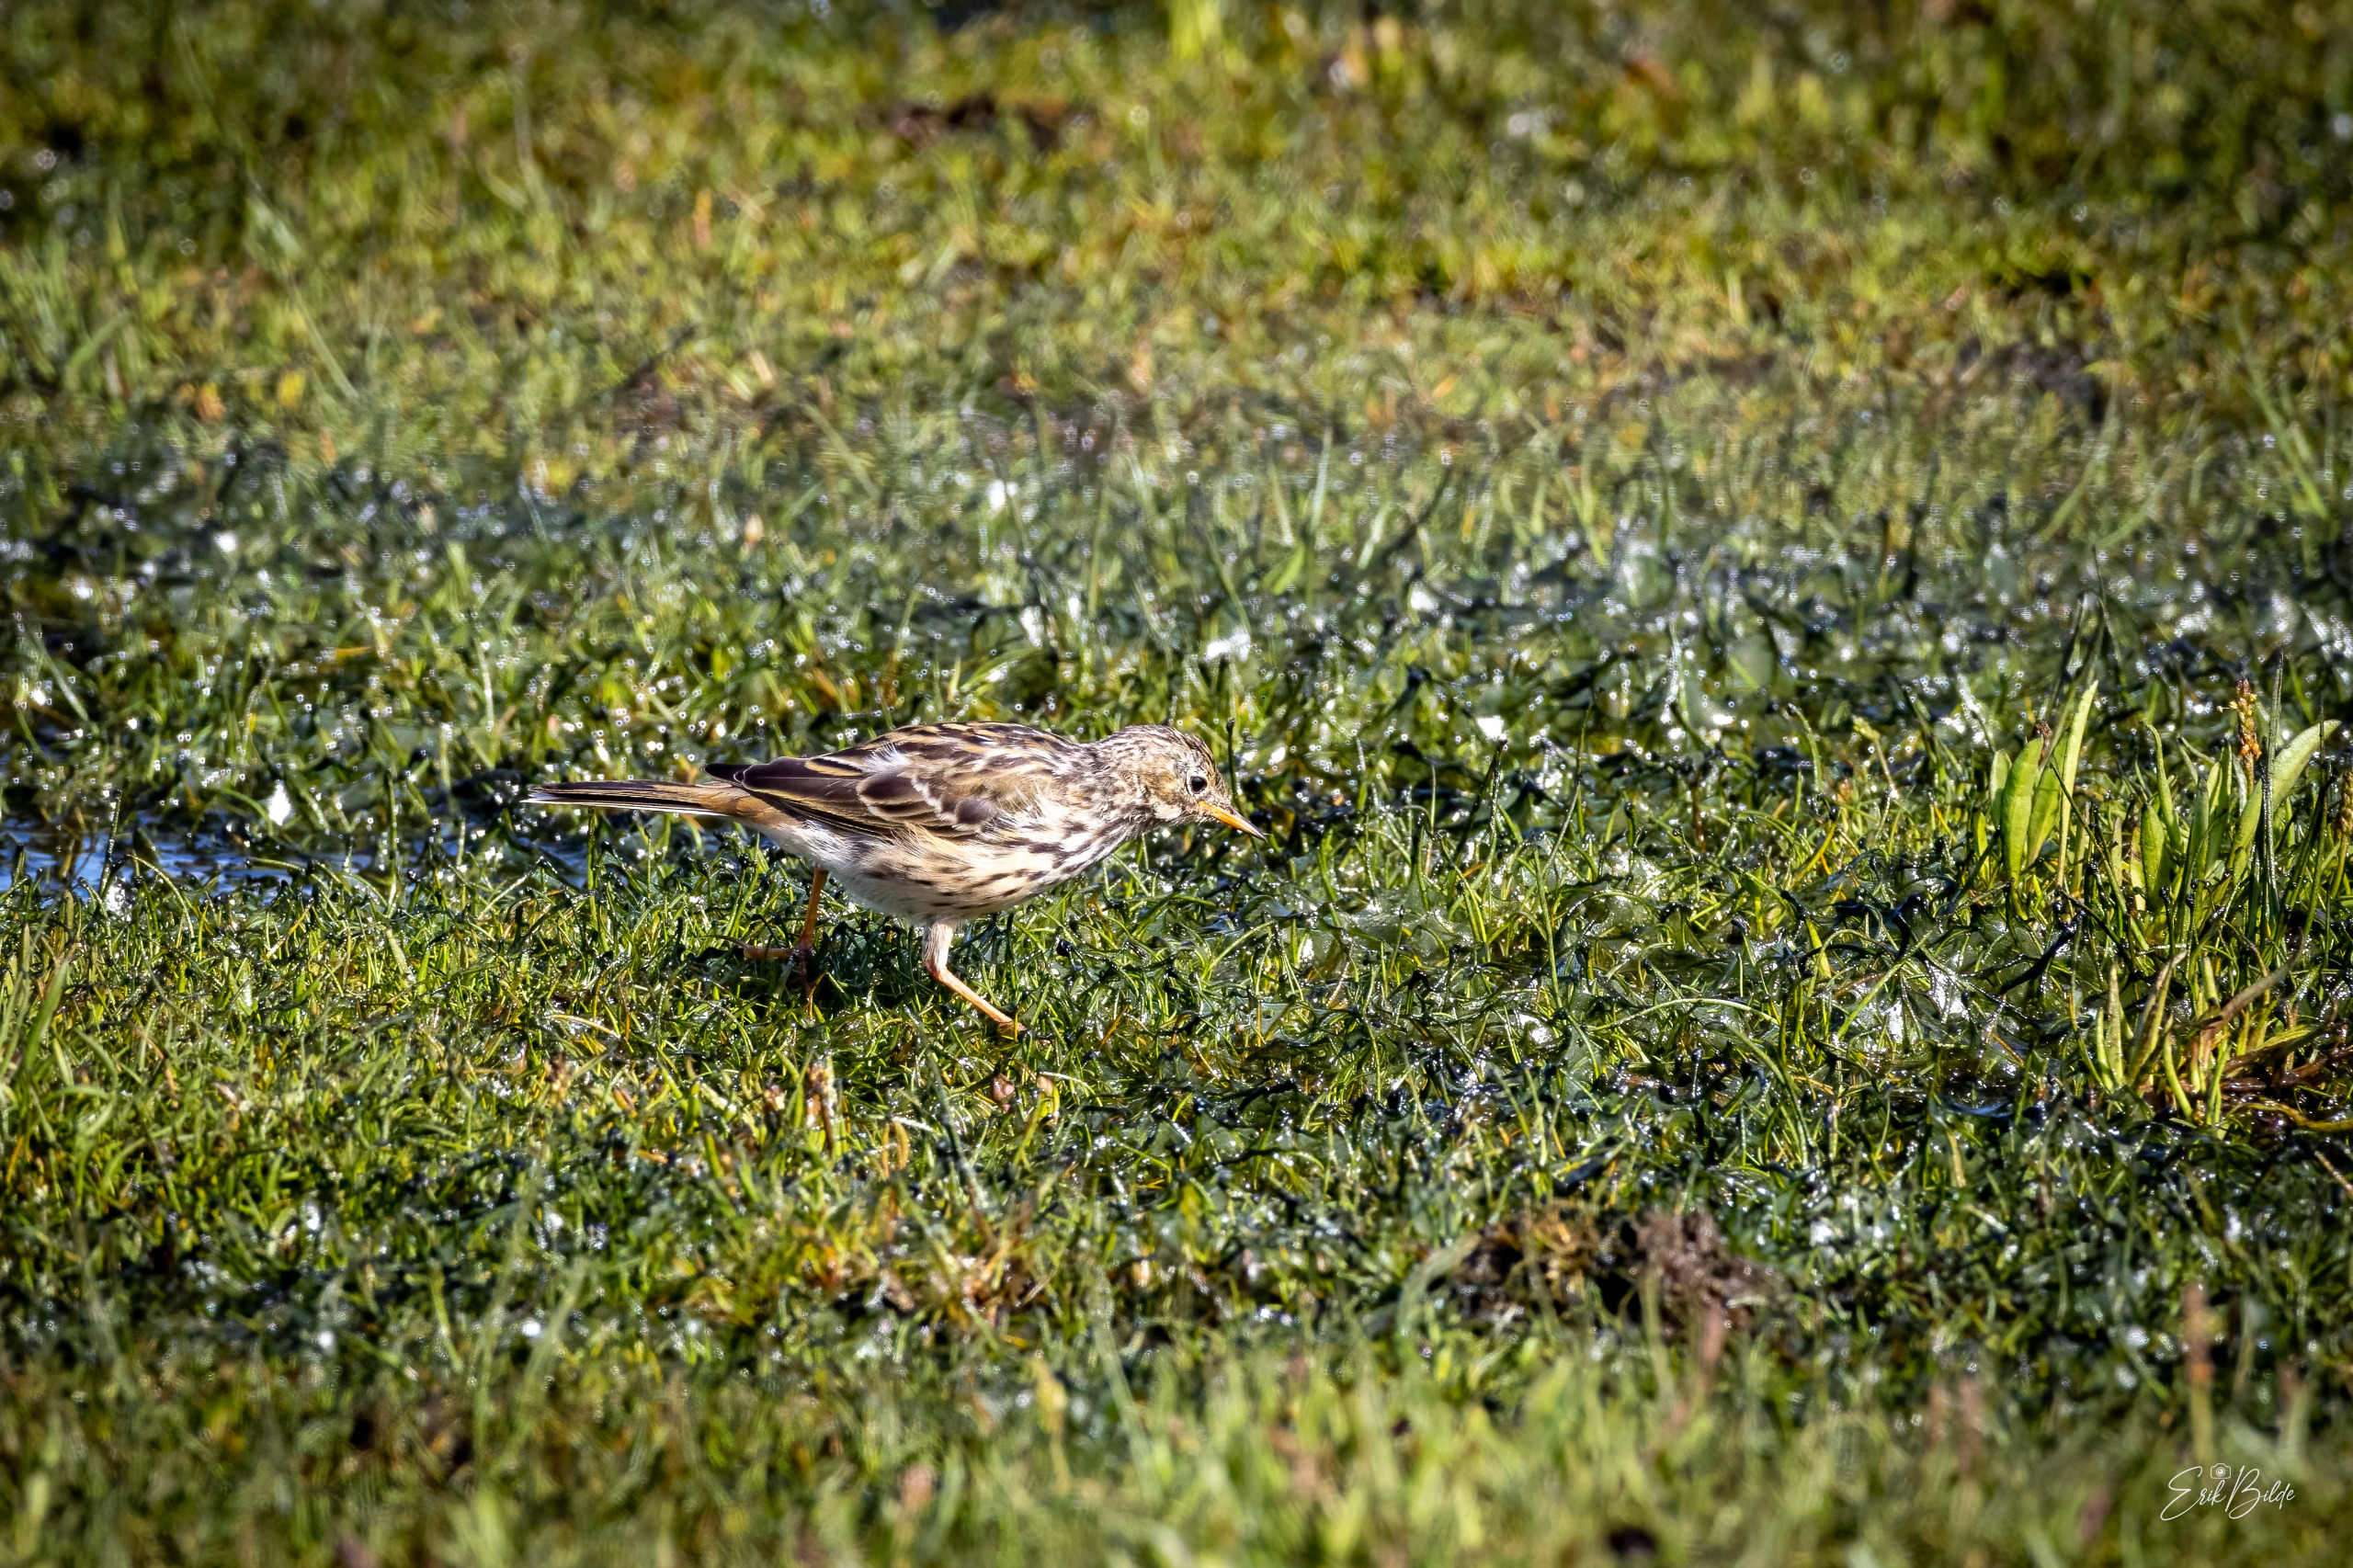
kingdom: Animalia
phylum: Chordata
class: Aves
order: Passeriformes
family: Motacillidae
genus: Anthus
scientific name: Anthus pratensis
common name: Engpiber
